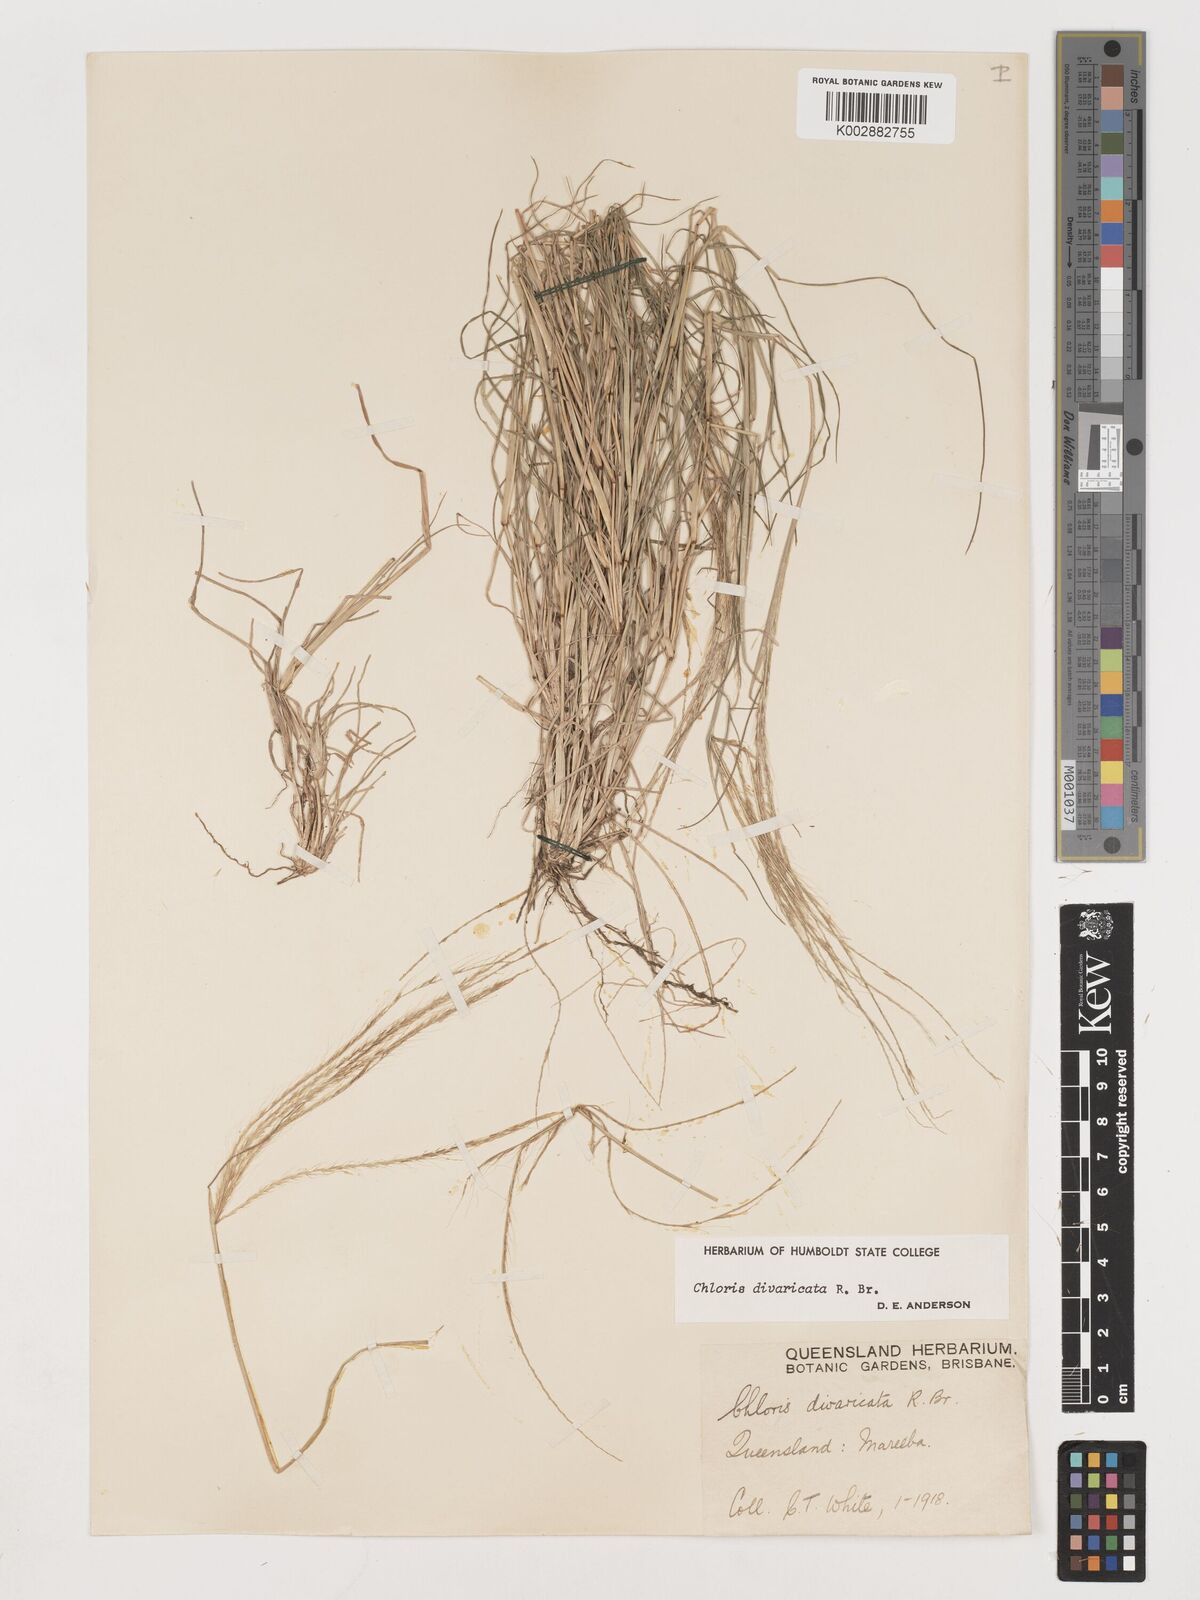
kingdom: Plantae
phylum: Tracheophyta
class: Liliopsida
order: Poales
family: Poaceae
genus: Chloris
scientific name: Chloris divaricata
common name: Spreading windmill grass
